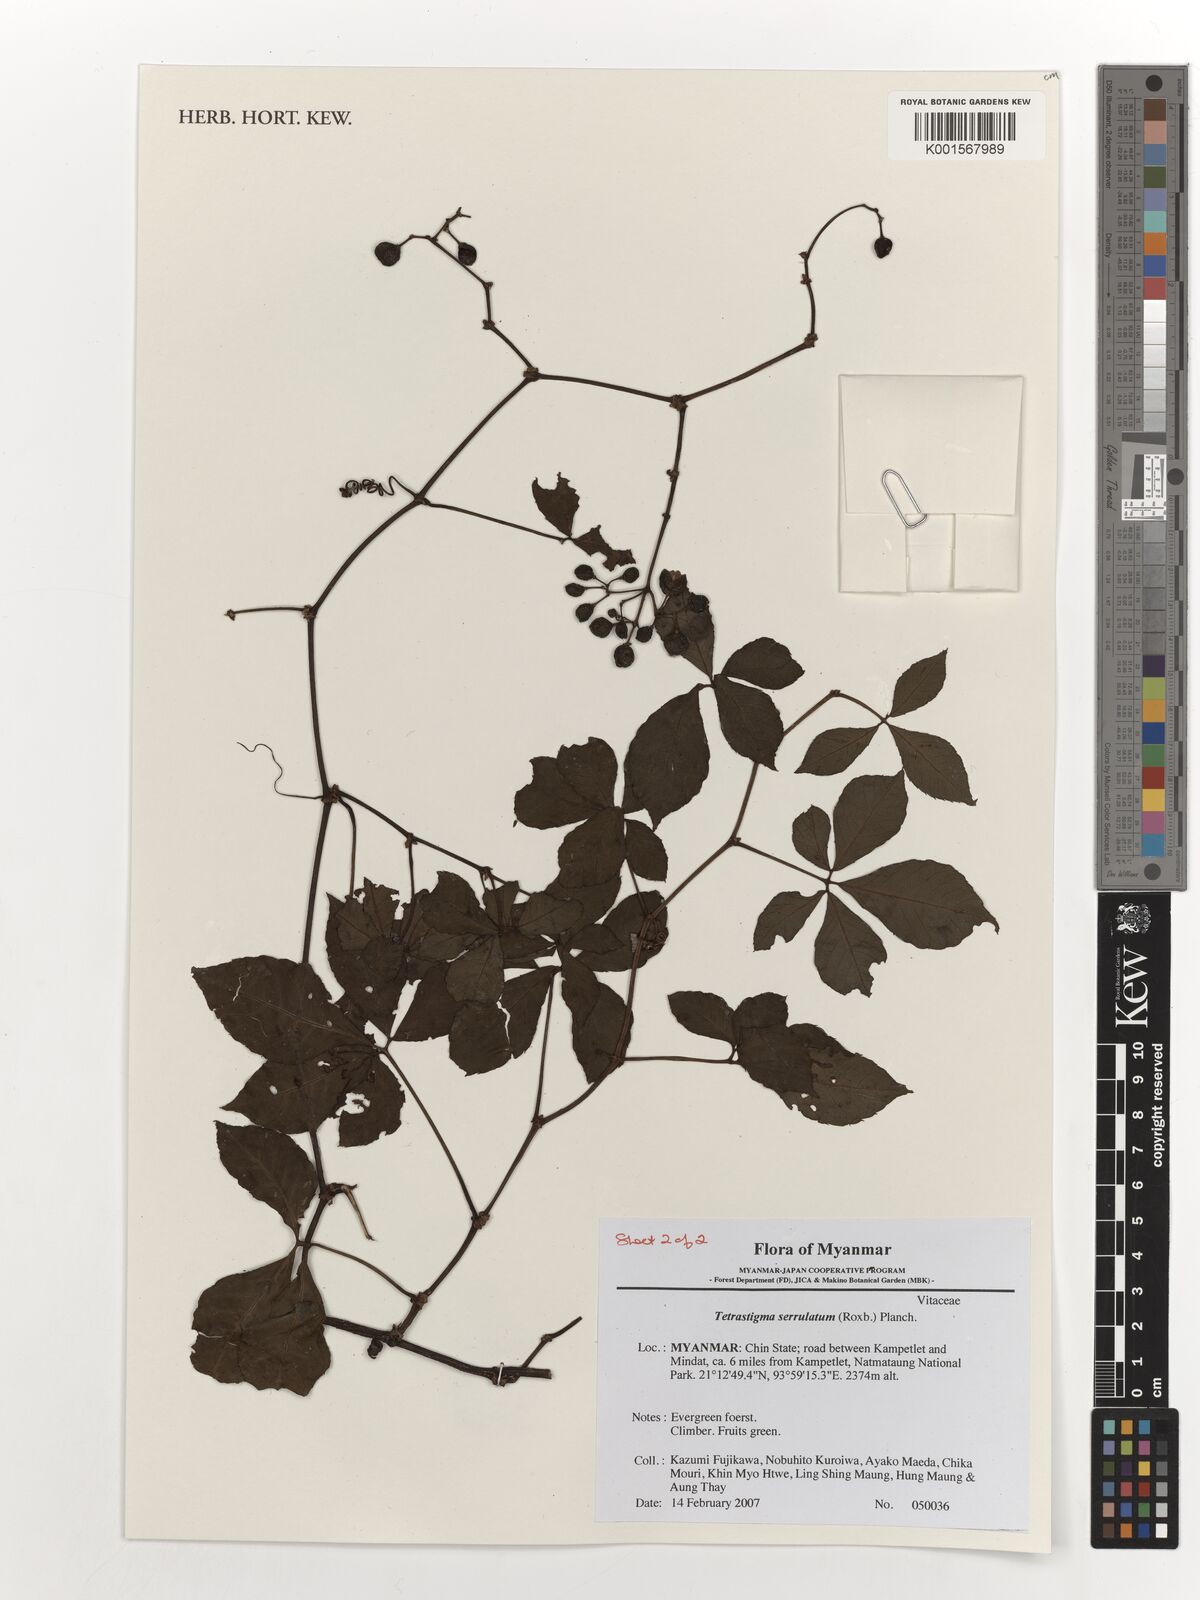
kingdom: Plantae
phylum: Tracheophyta
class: Magnoliopsida
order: Vitales
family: Vitaceae
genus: Tetrastigma
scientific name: Tetrastigma serrulatum
